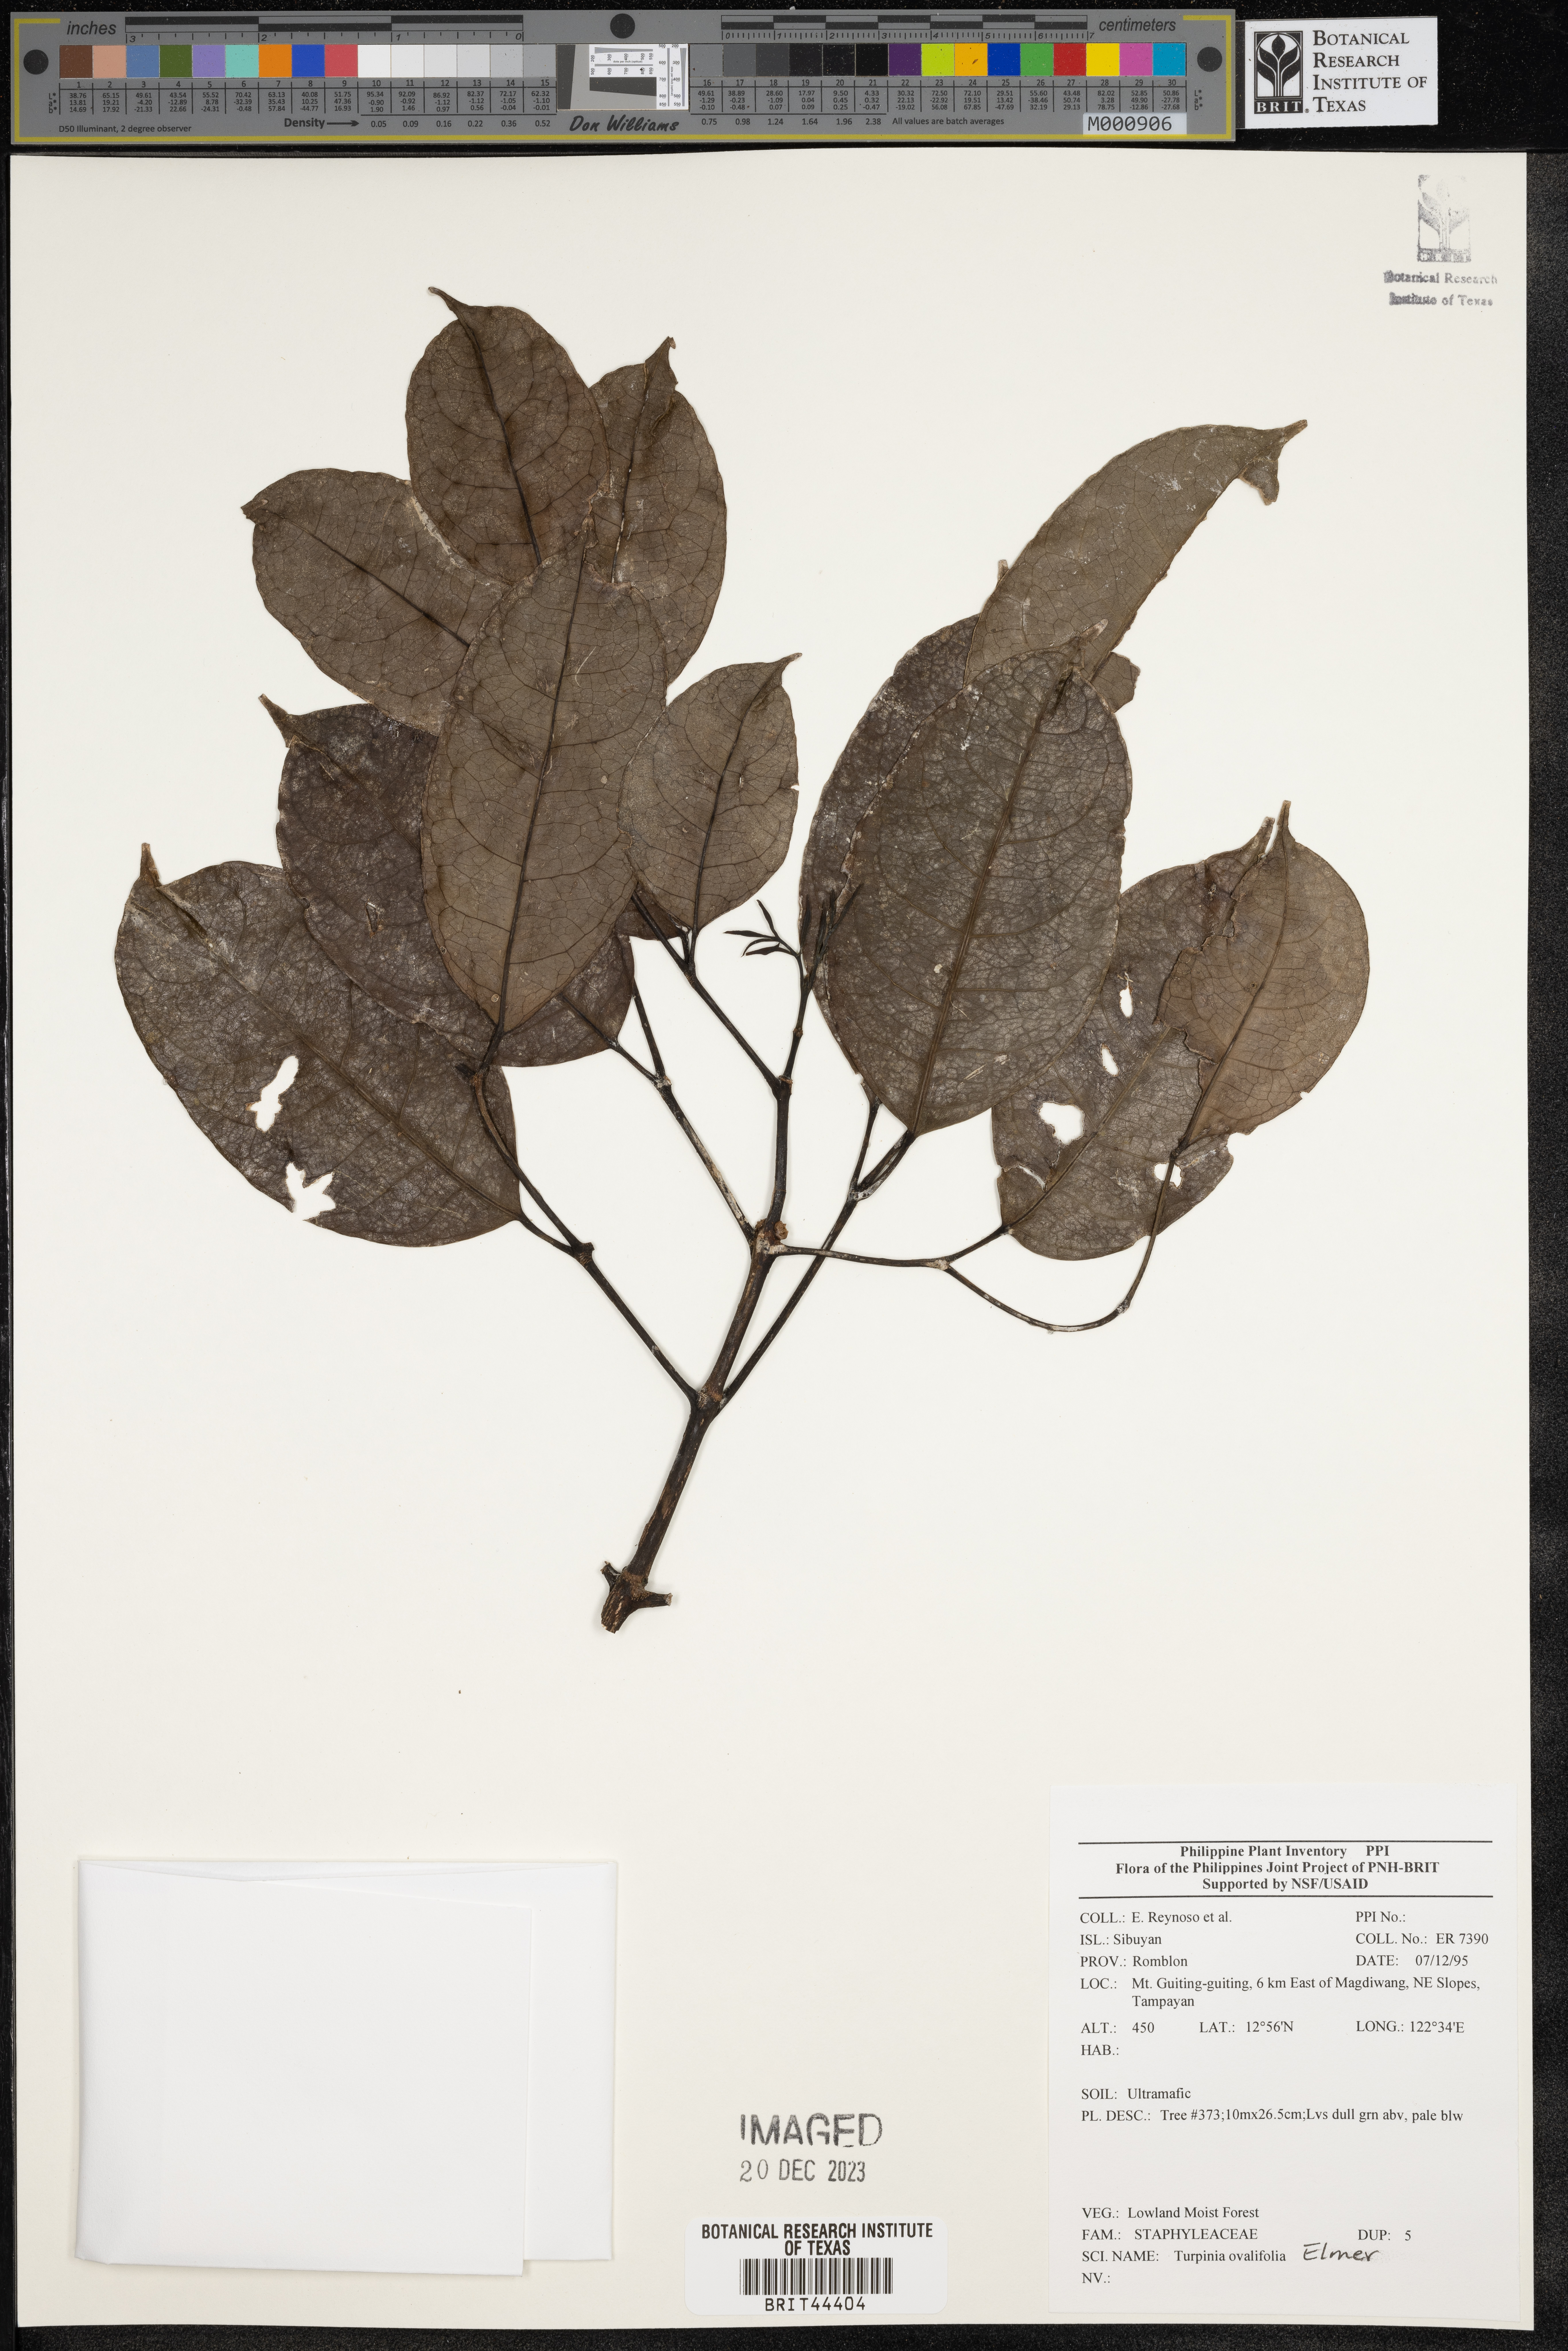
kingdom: Plantae
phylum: Tracheophyta
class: Magnoliopsida
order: Crossosomatales
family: Staphyleaceae
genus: Turpinia
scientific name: Turpinia
